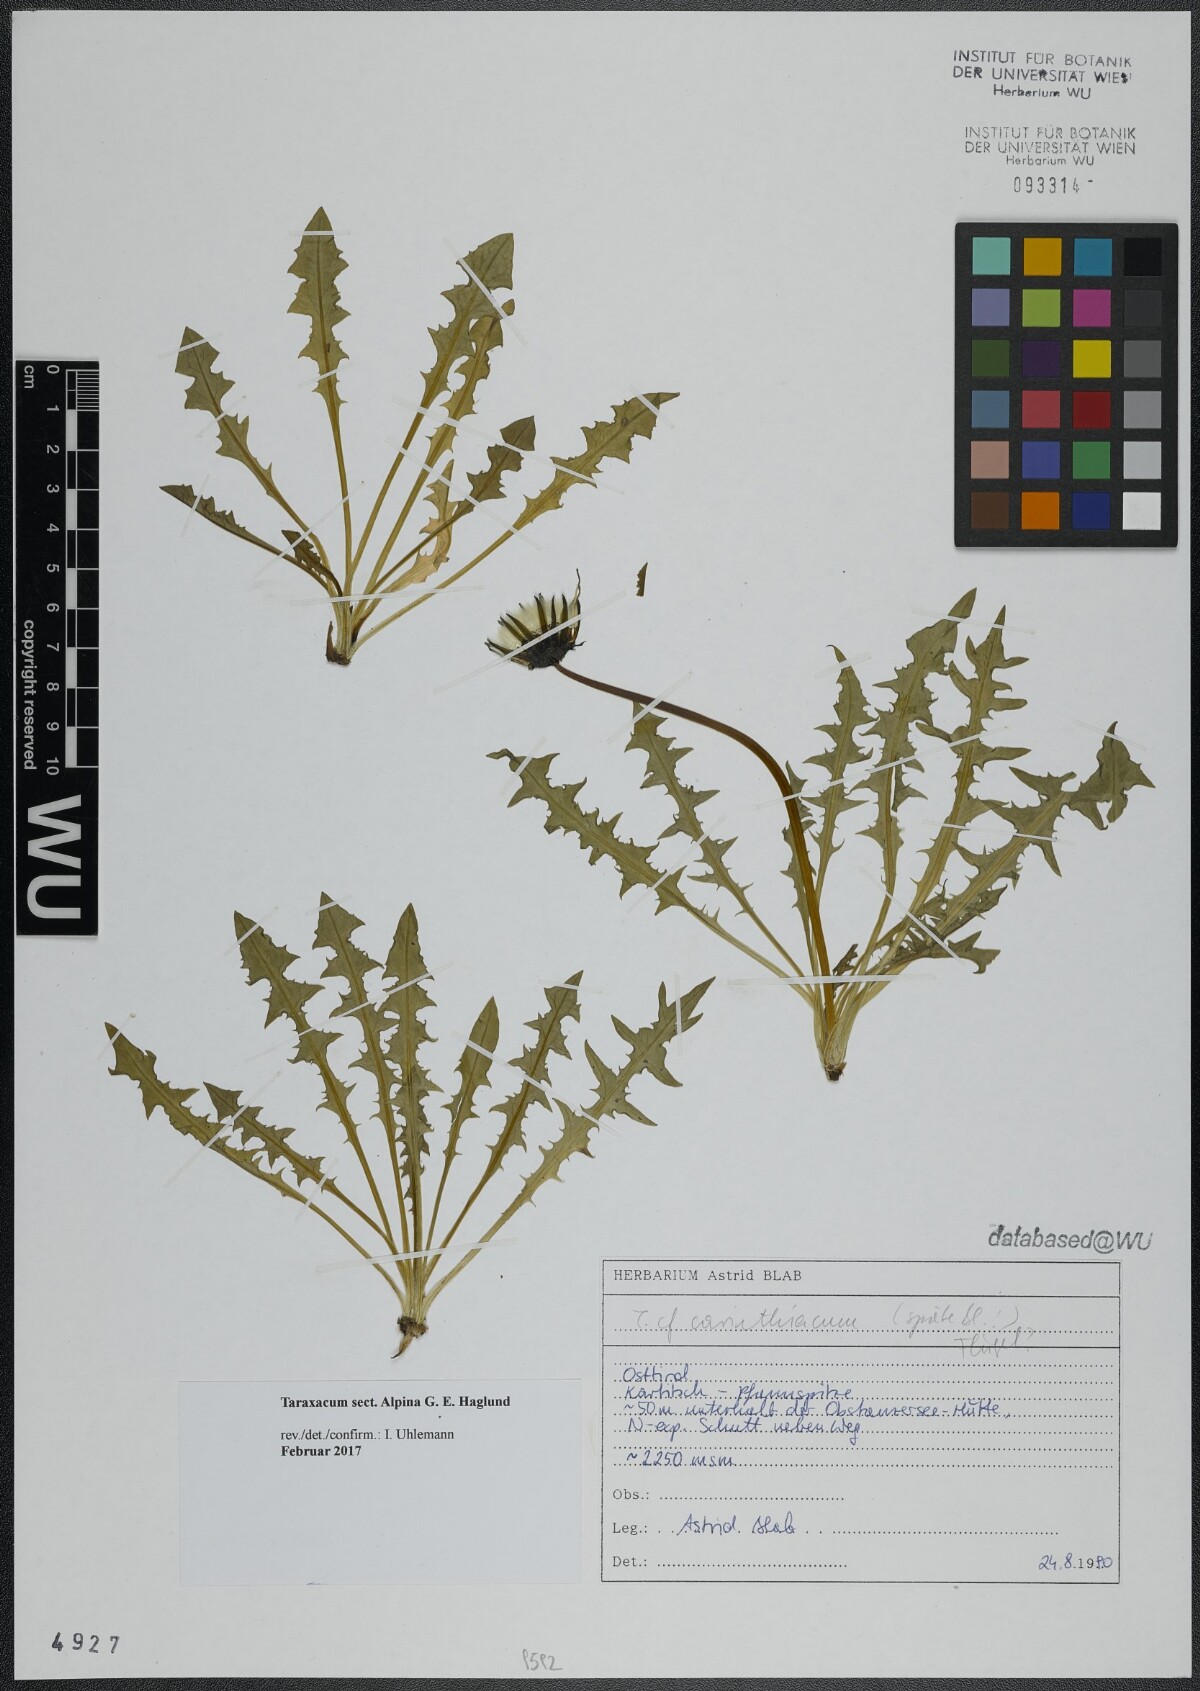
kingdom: Plantae
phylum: Tracheophyta
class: Magnoliopsida
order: Asterales
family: Asteraceae
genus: Taraxacum
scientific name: Taraxacum
